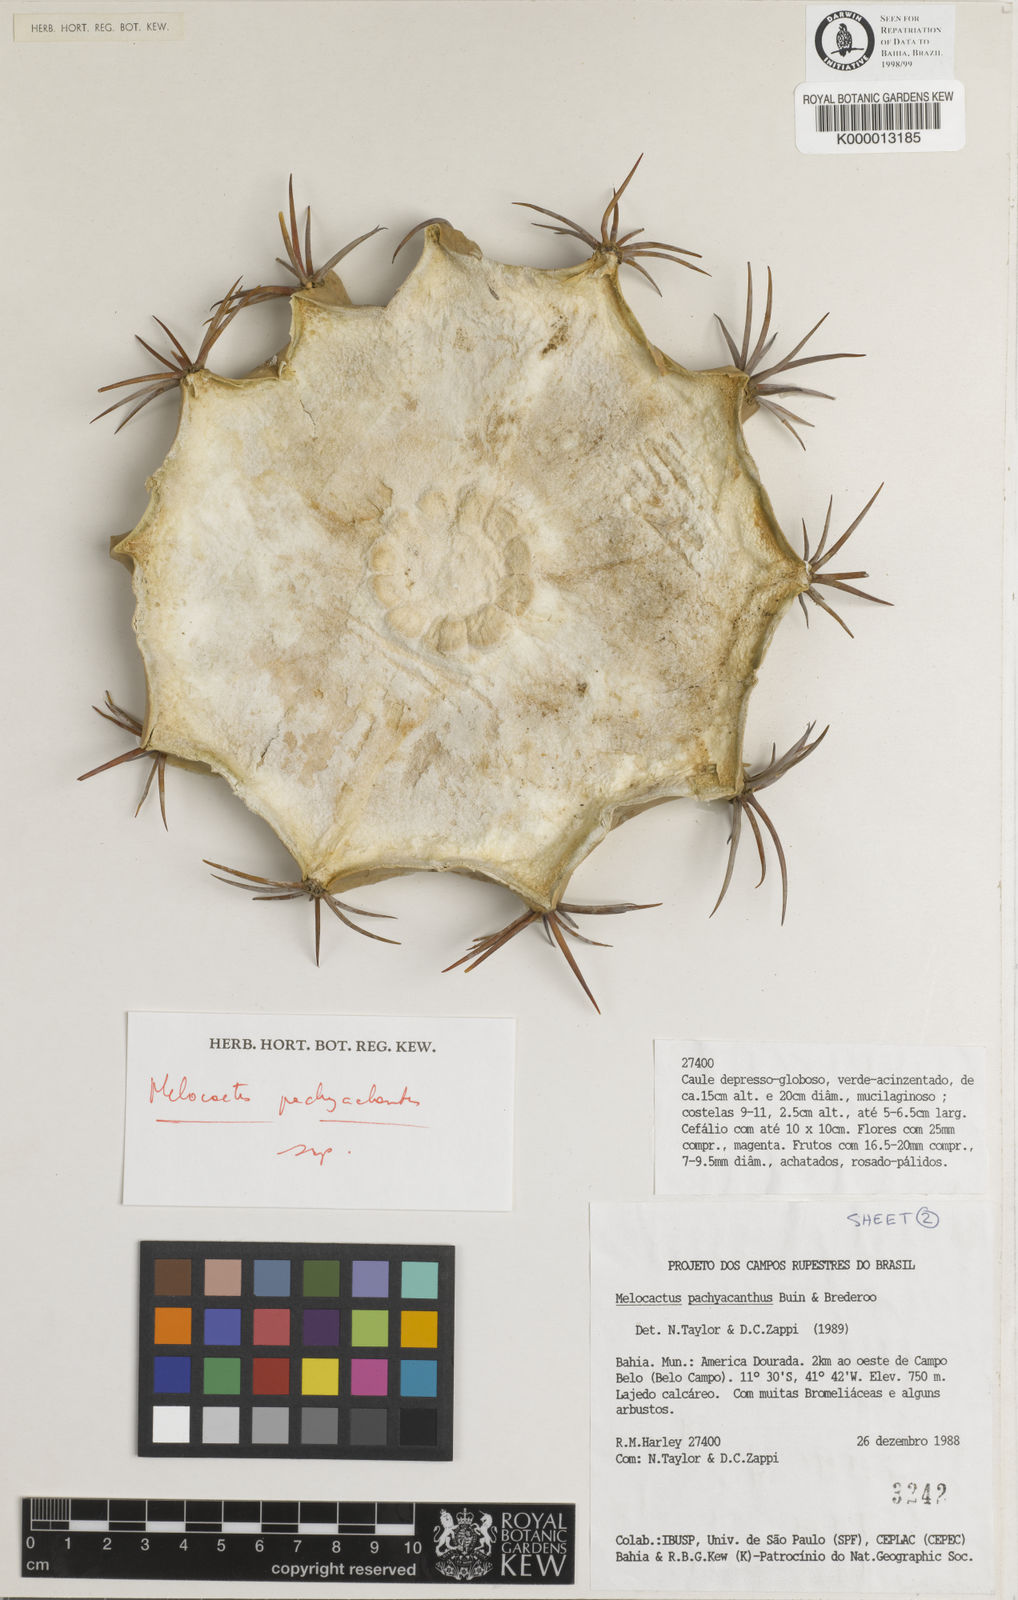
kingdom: Plantae
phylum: Tracheophyta
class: Magnoliopsida
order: Caryophyllales
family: Cactaceae
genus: Melocactus
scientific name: Melocactus neoviridescens
